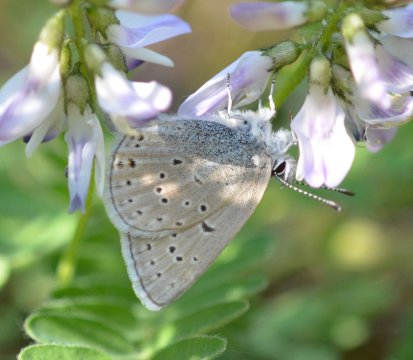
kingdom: Animalia
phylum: Arthropoda
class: Insecta
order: Lepidoptera
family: Lycaenidae
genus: Plebejus
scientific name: Plebejus saepiolus
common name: Greenish Blue
